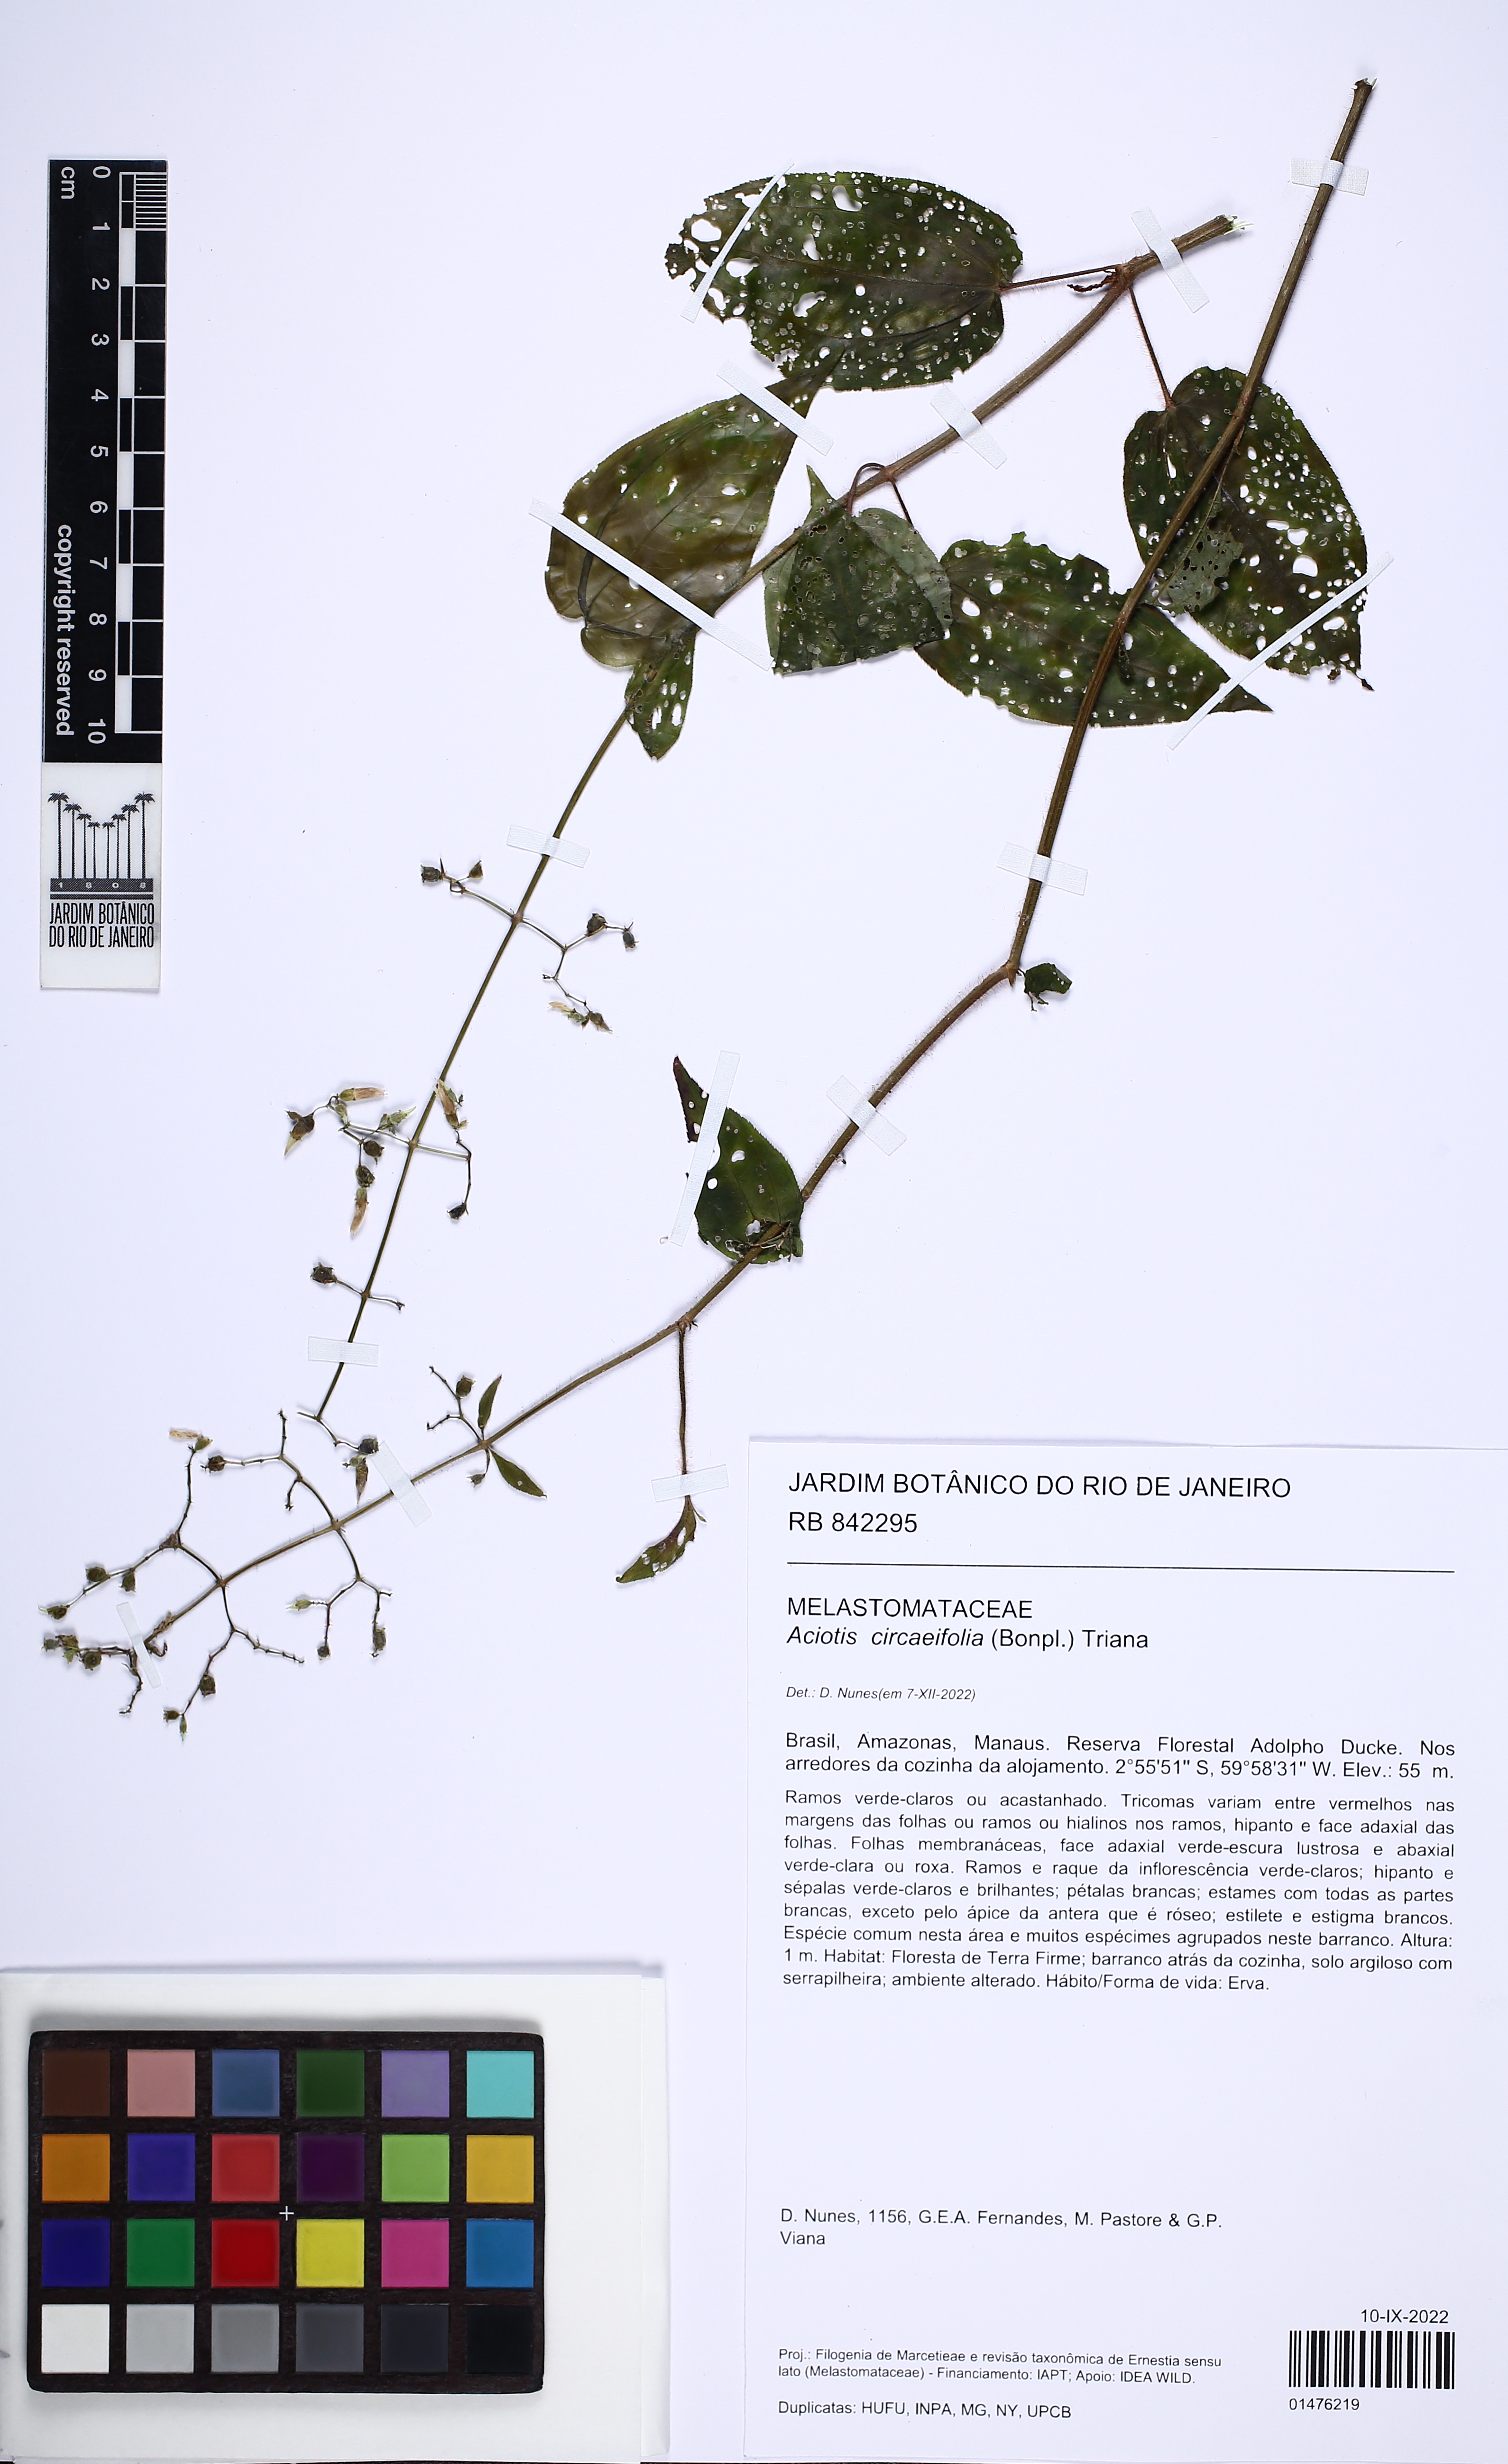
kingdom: Plantae
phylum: Tracheophyta
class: Magnoliopsida
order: Myrtales
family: Melastomataceae
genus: Aciotis
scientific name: Aciotis circaeifolia
